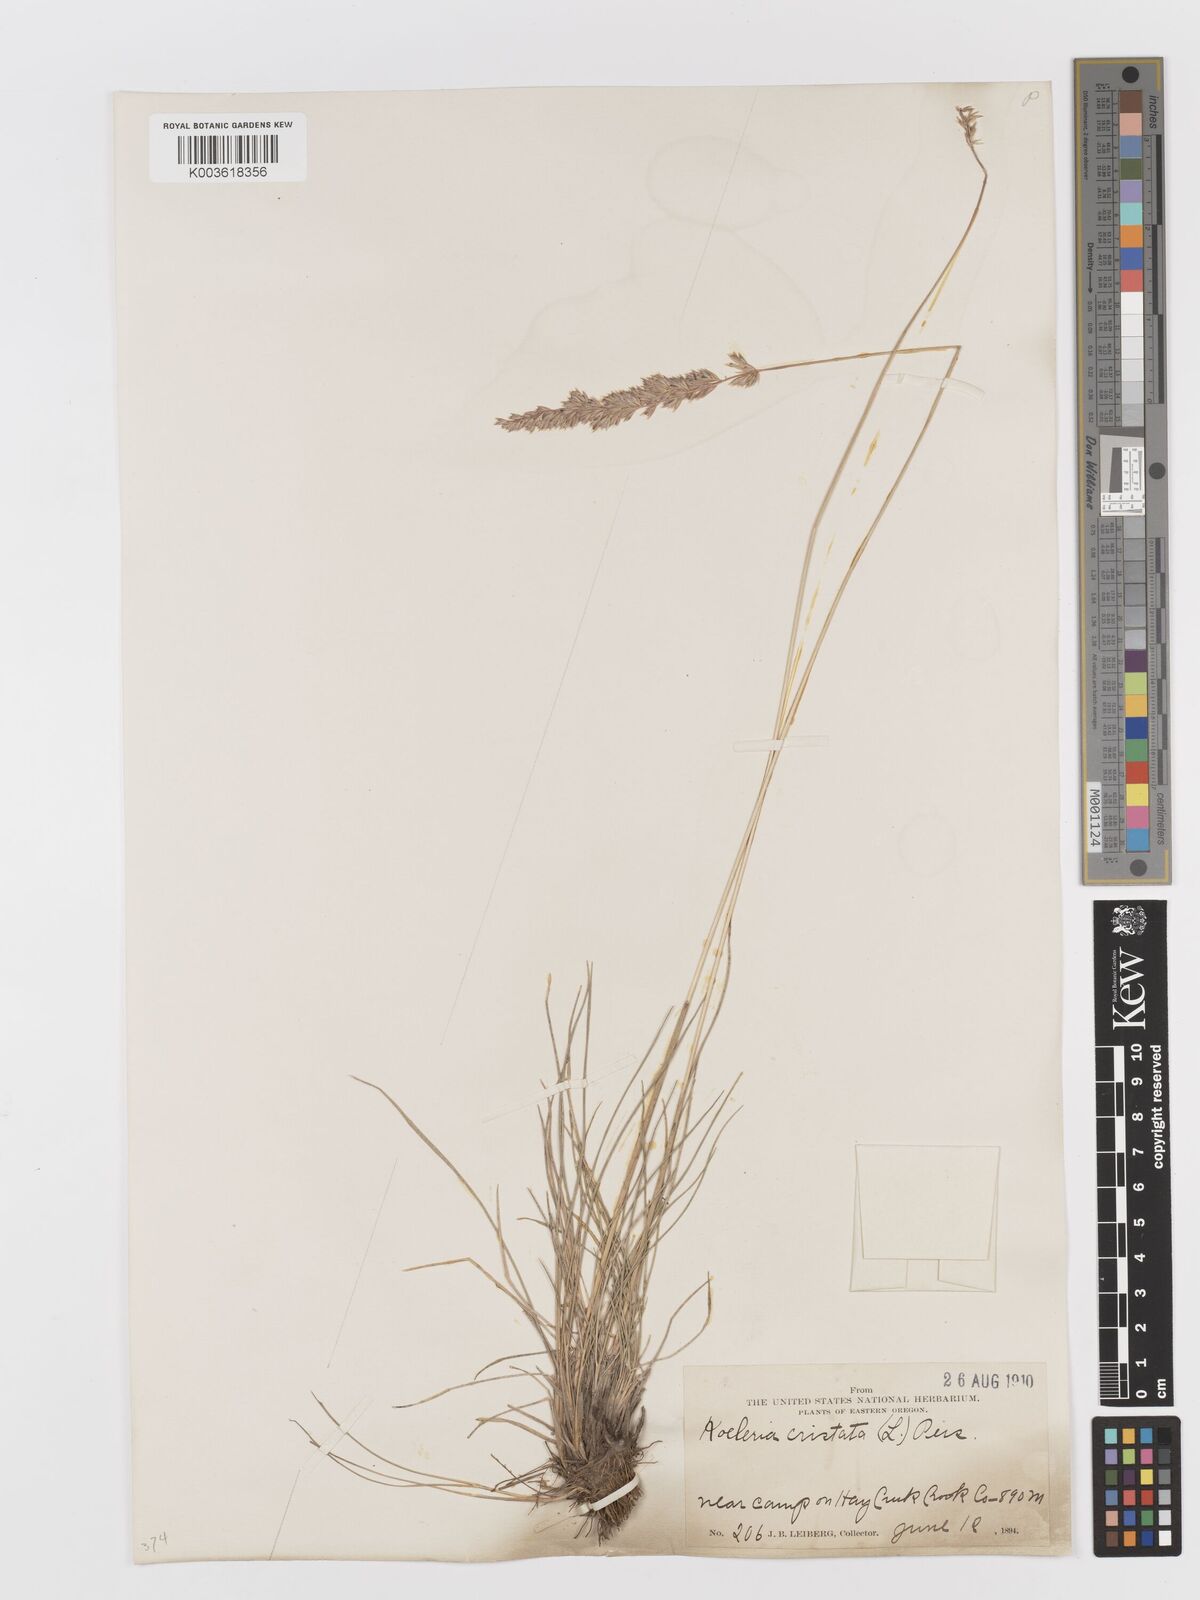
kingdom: Plantae
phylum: Tracheophyta
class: Liliopsida
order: Poales
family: Poaceae
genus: Koeleria
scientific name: Koeleria
